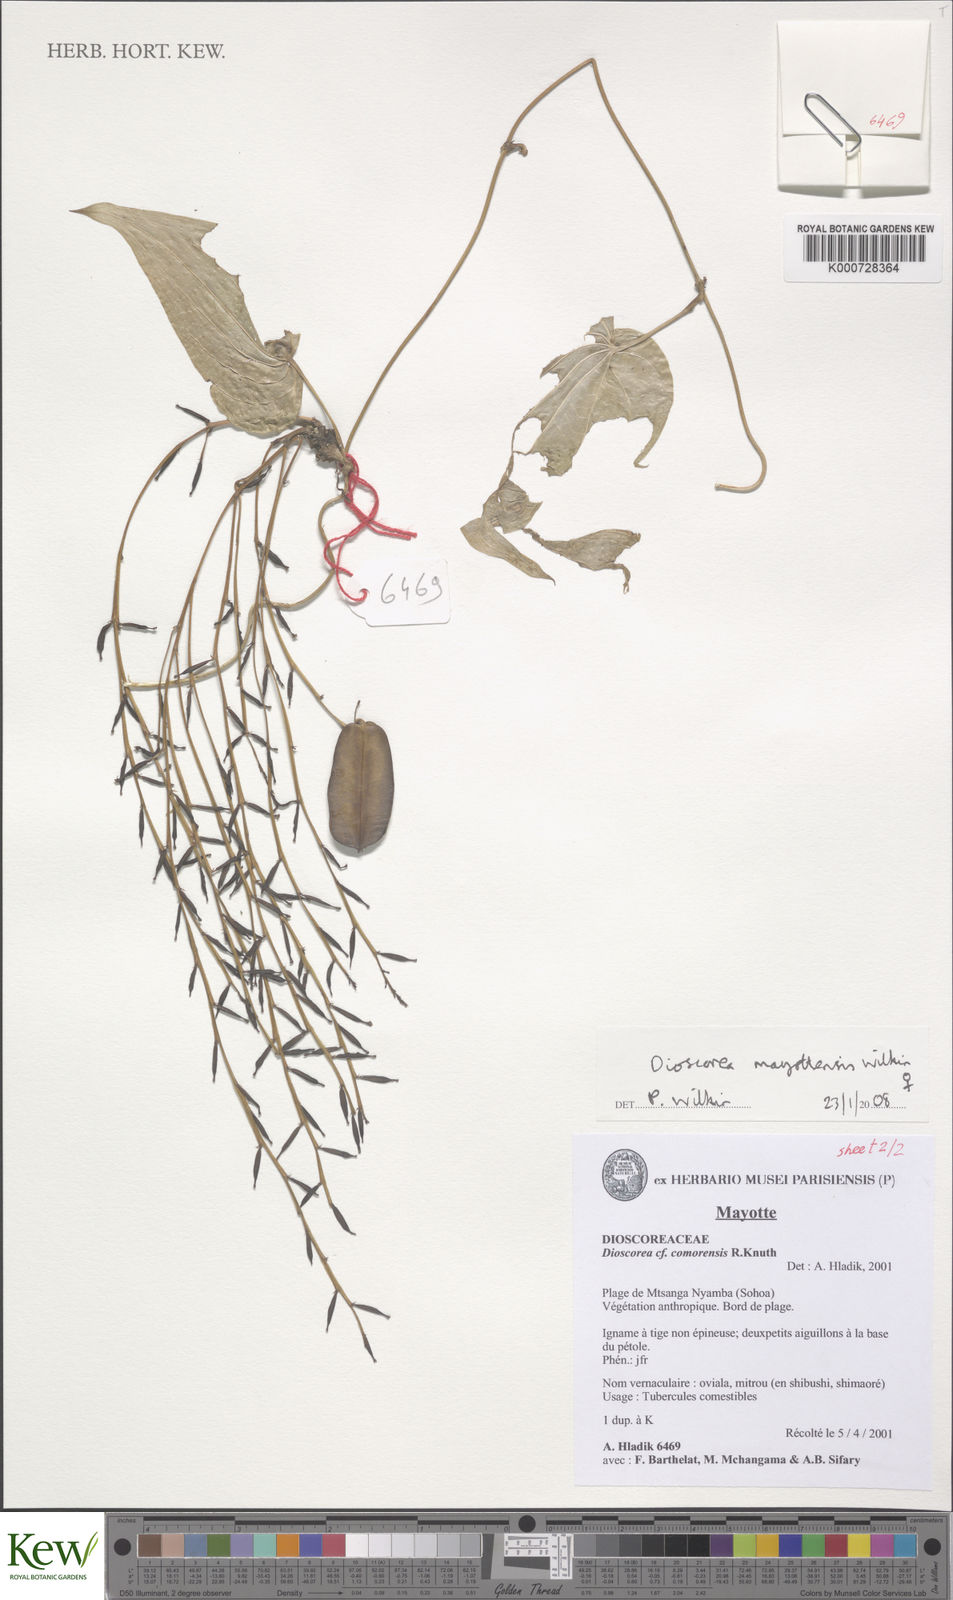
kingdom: Plantae
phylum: Tracheophyta
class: Liliopsida
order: Dioscoreales
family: Dioscoreaceae
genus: Dioscorea
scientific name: Dioscorea mayottensis
